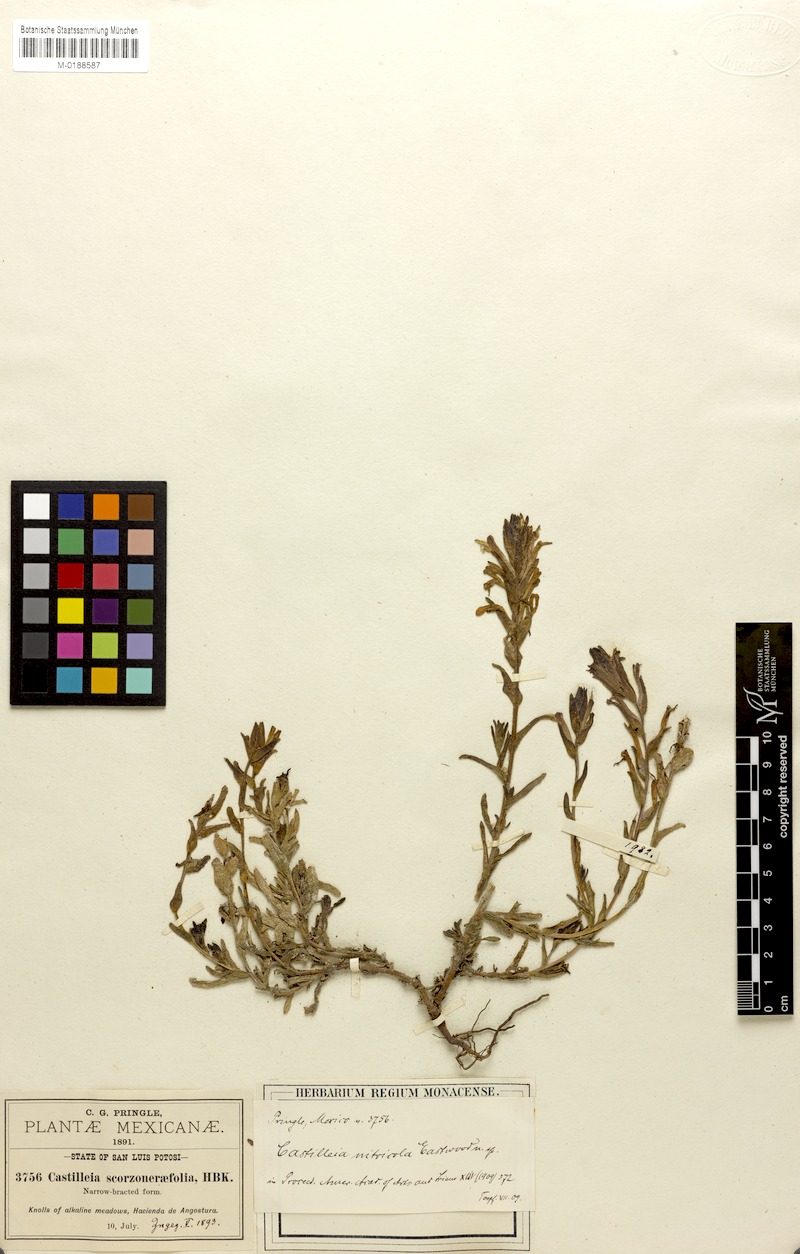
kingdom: Plantae
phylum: Tracheophyta
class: Magnoliopsida
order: Lamiales
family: Orobanchaceae
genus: Castilleja
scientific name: Castilleja nitricola
